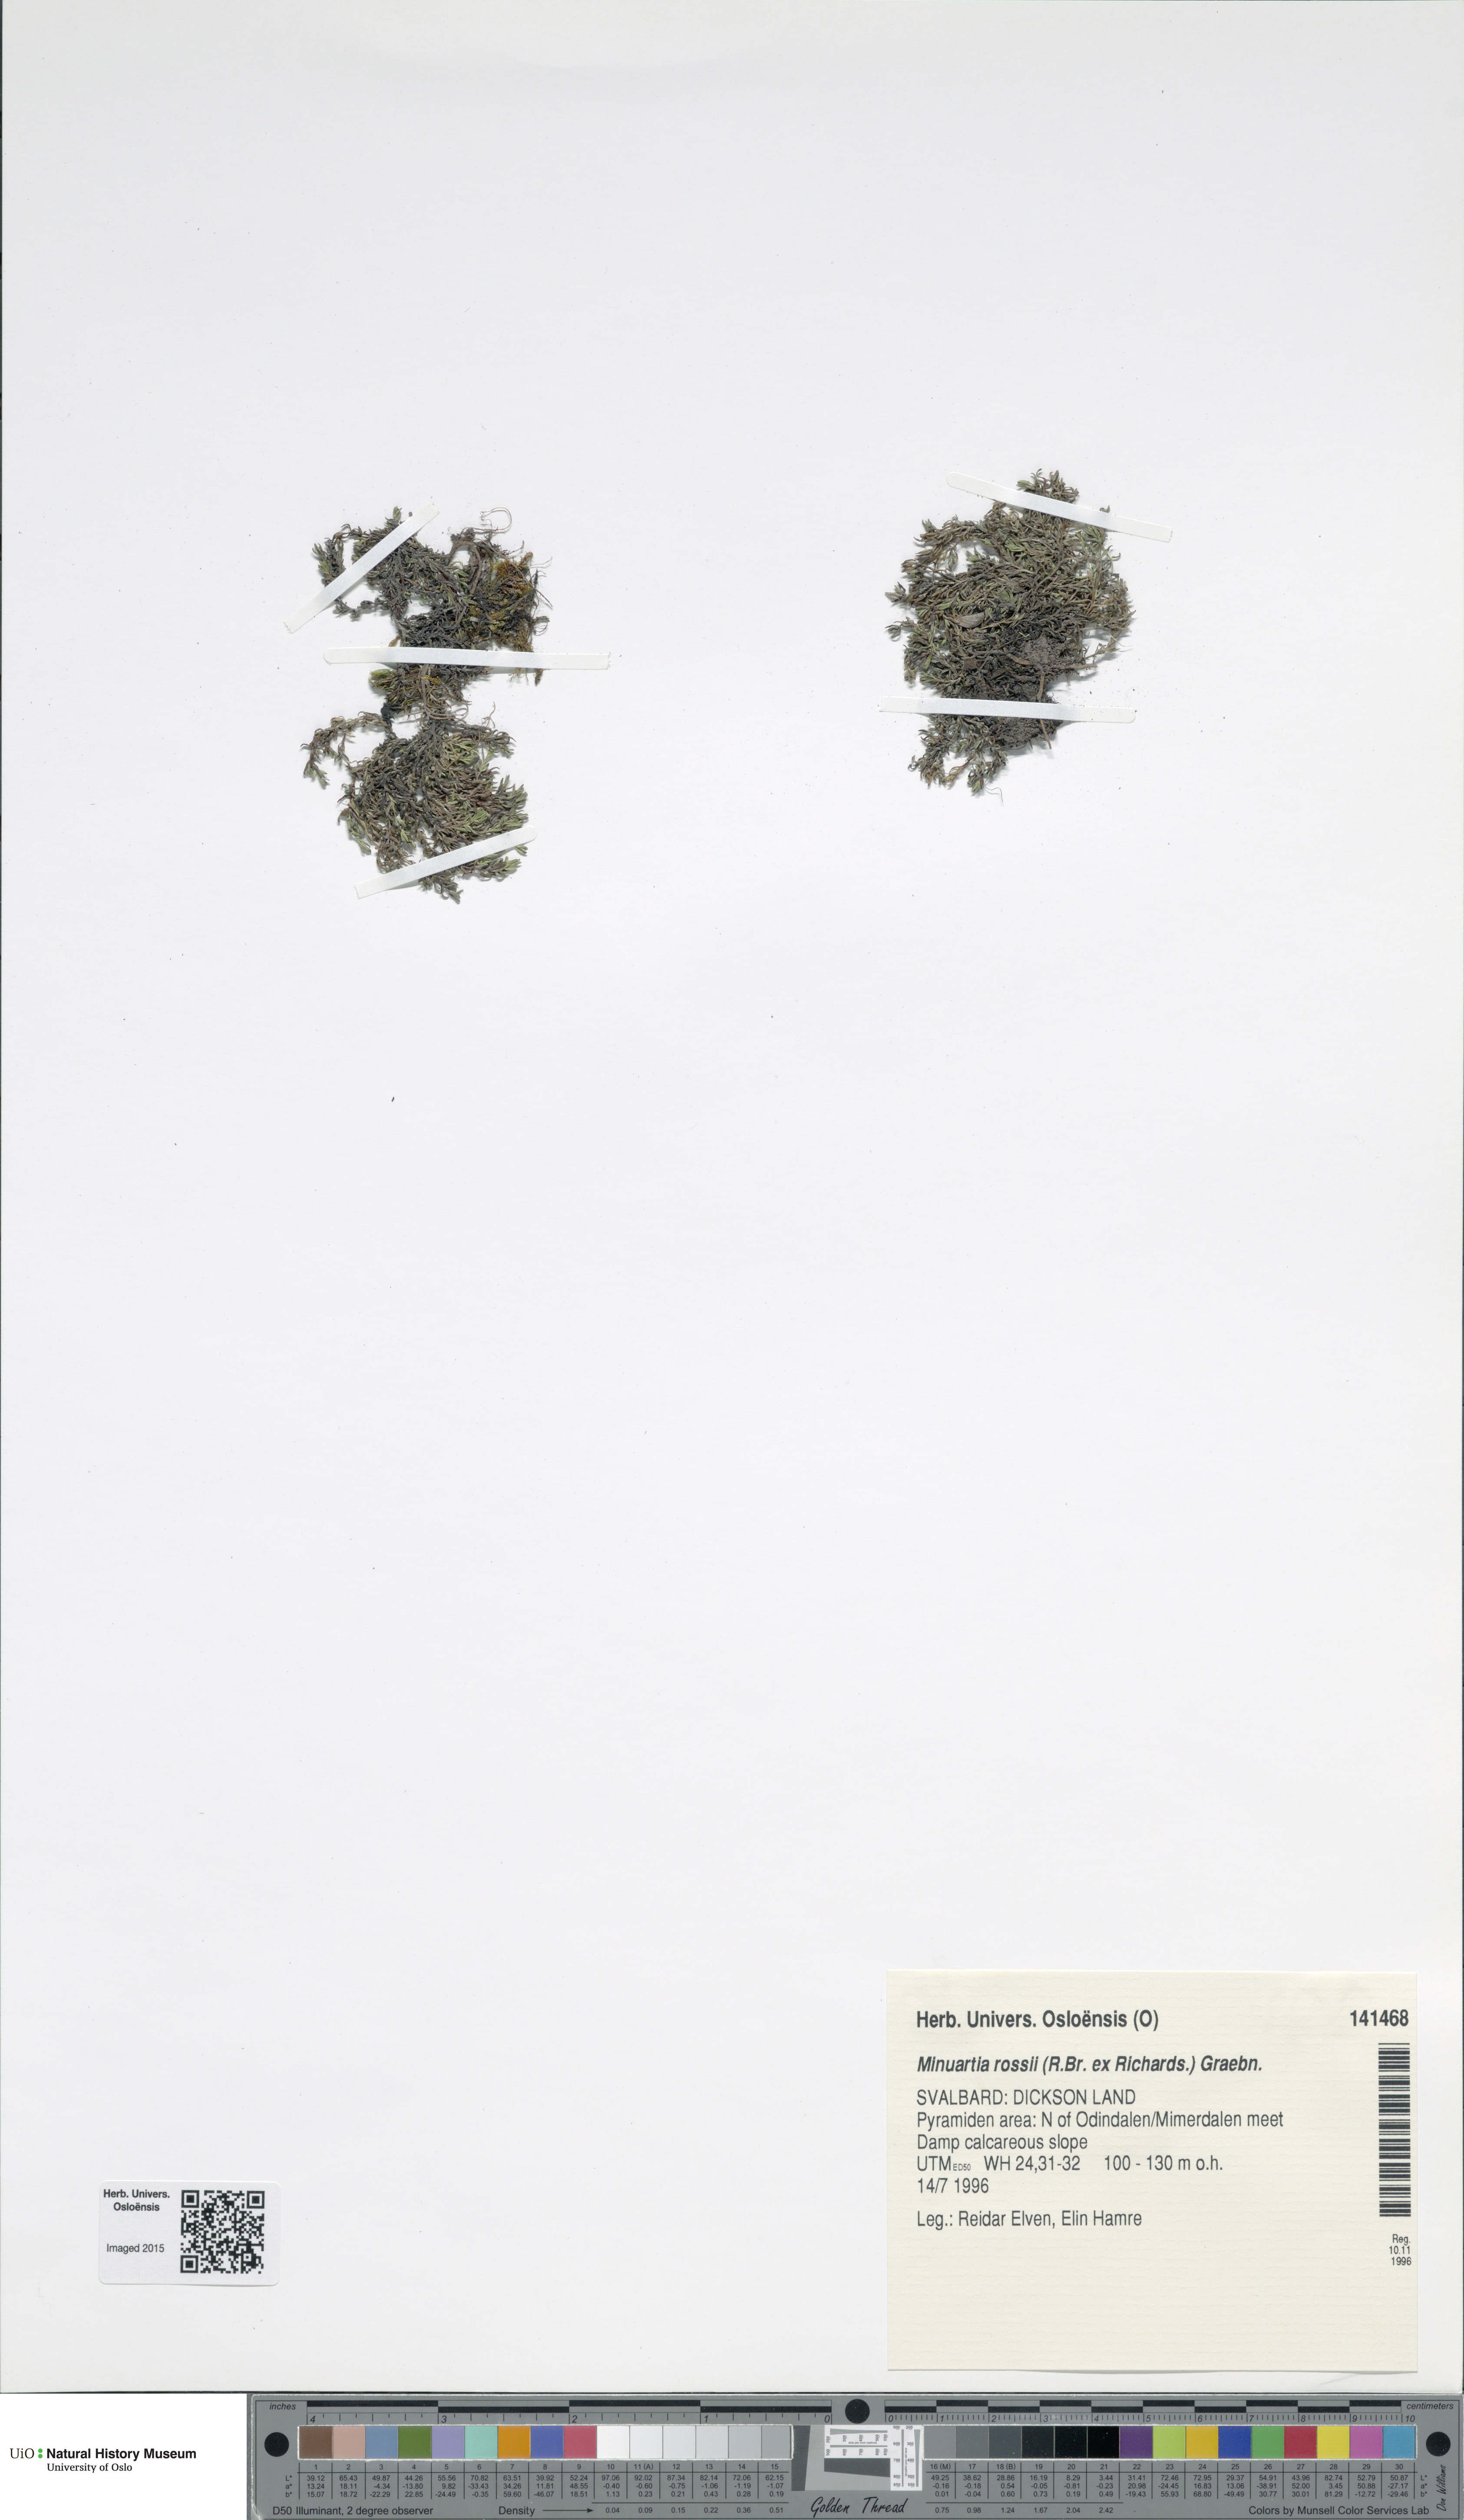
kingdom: Plantae
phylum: Tracheophyta
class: Magnoliopsida
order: Caryophyllales
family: Caryophyllaceae
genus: Sabulina
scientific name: Sabulina rosei
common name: Ross' sandwort
